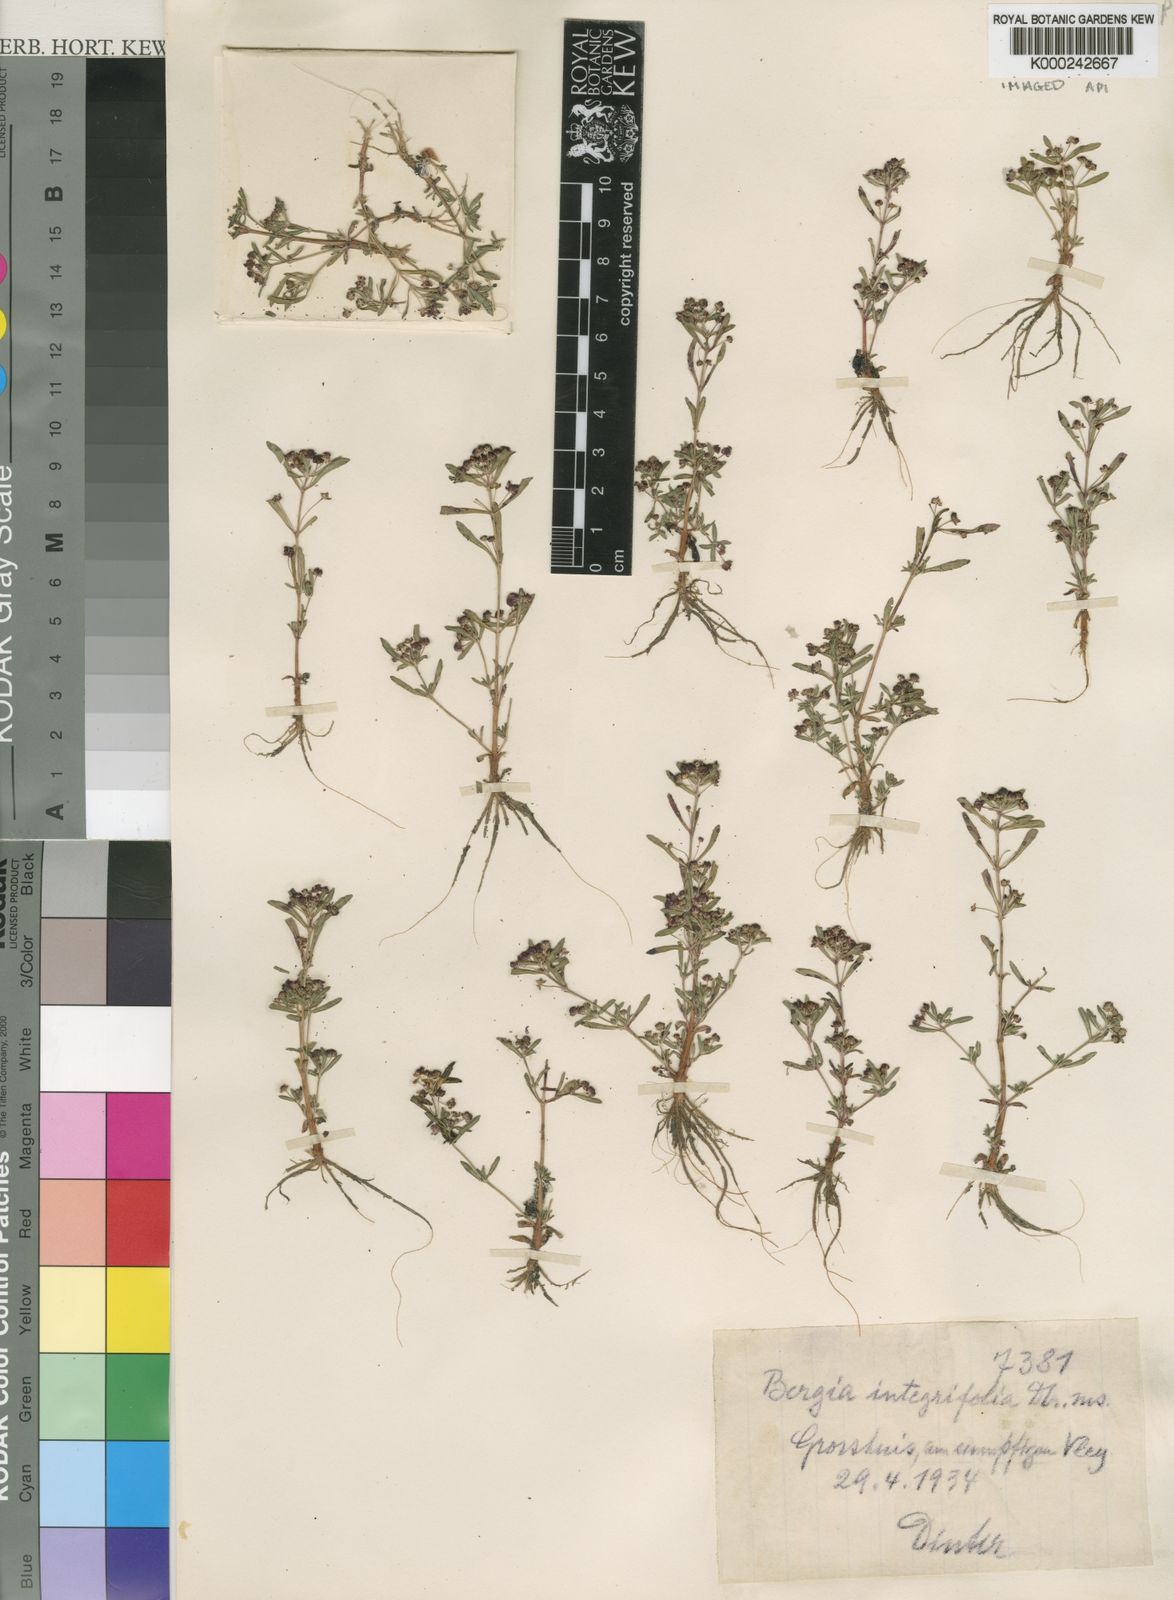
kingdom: Plantae
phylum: Tracheophyta
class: Magnoliopsida
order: Malpighiales
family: Elatinaceae
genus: Bergia
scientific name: Bergia
